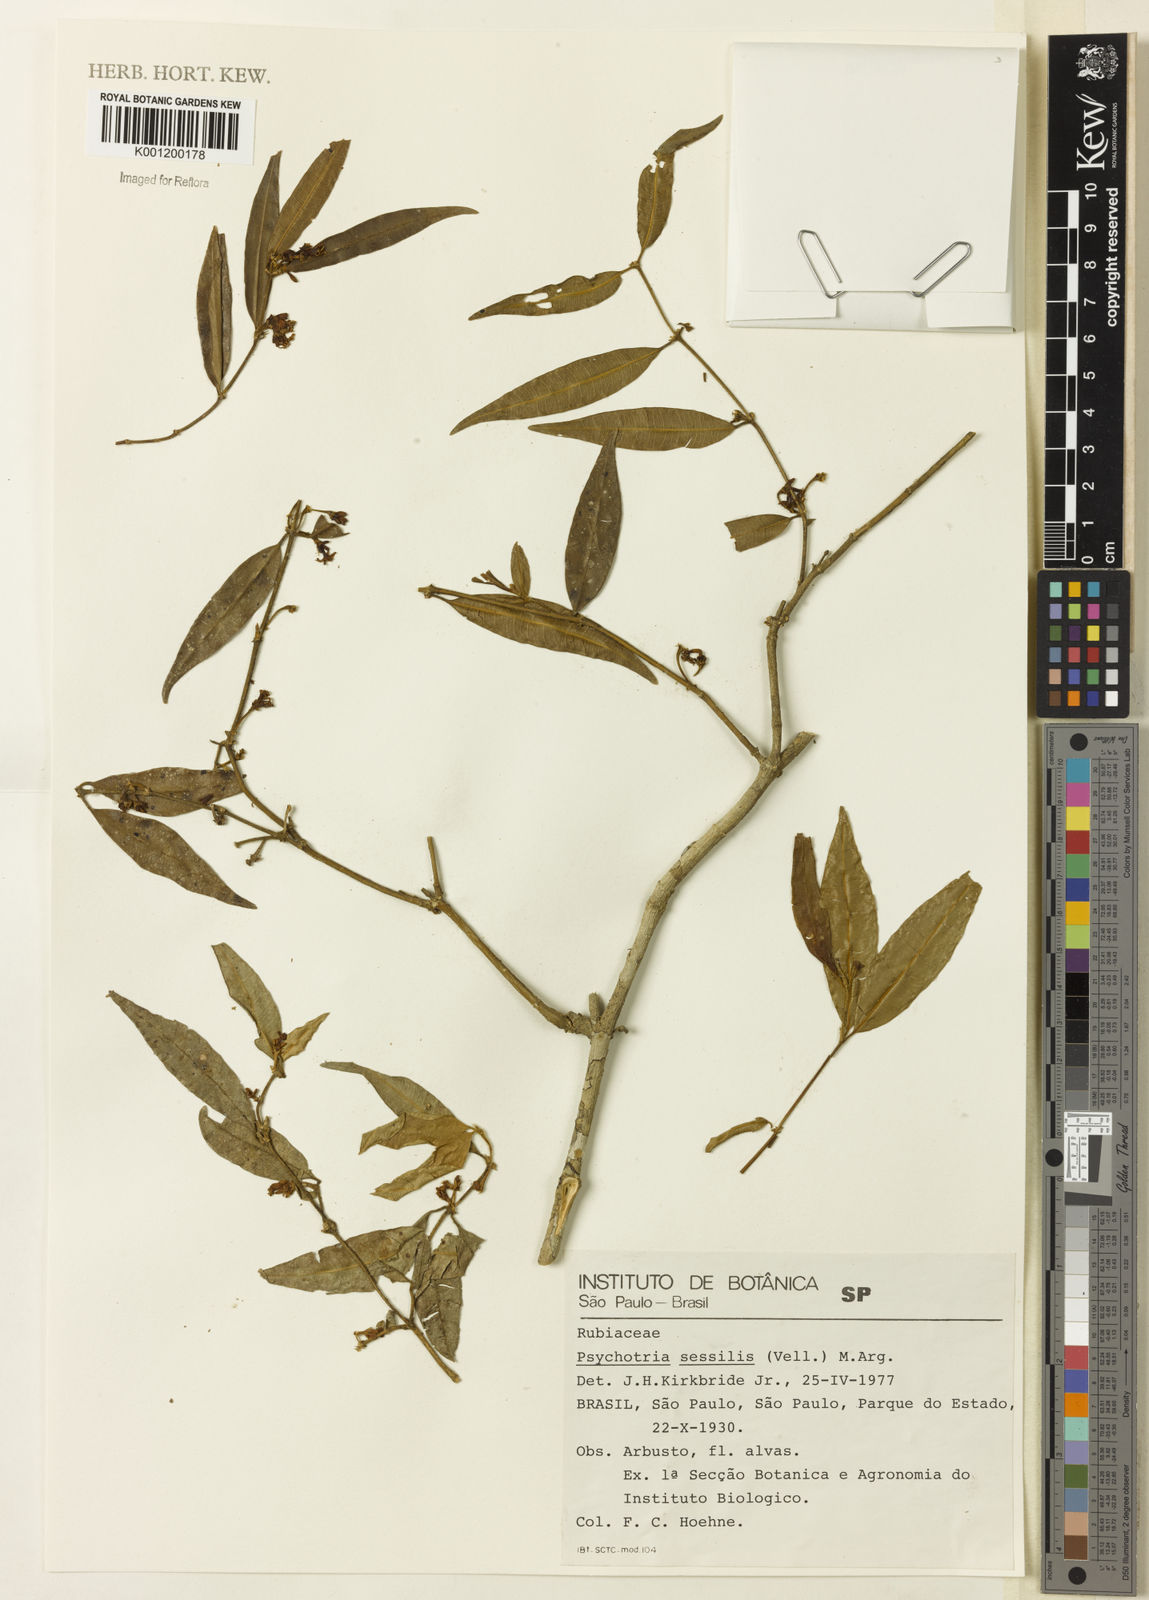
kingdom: Plantae
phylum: Tracheophyta
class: Magnoliopsida
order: Gentianales
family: Rubiaceae
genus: Rudgea
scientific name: Rudgea sessilis
